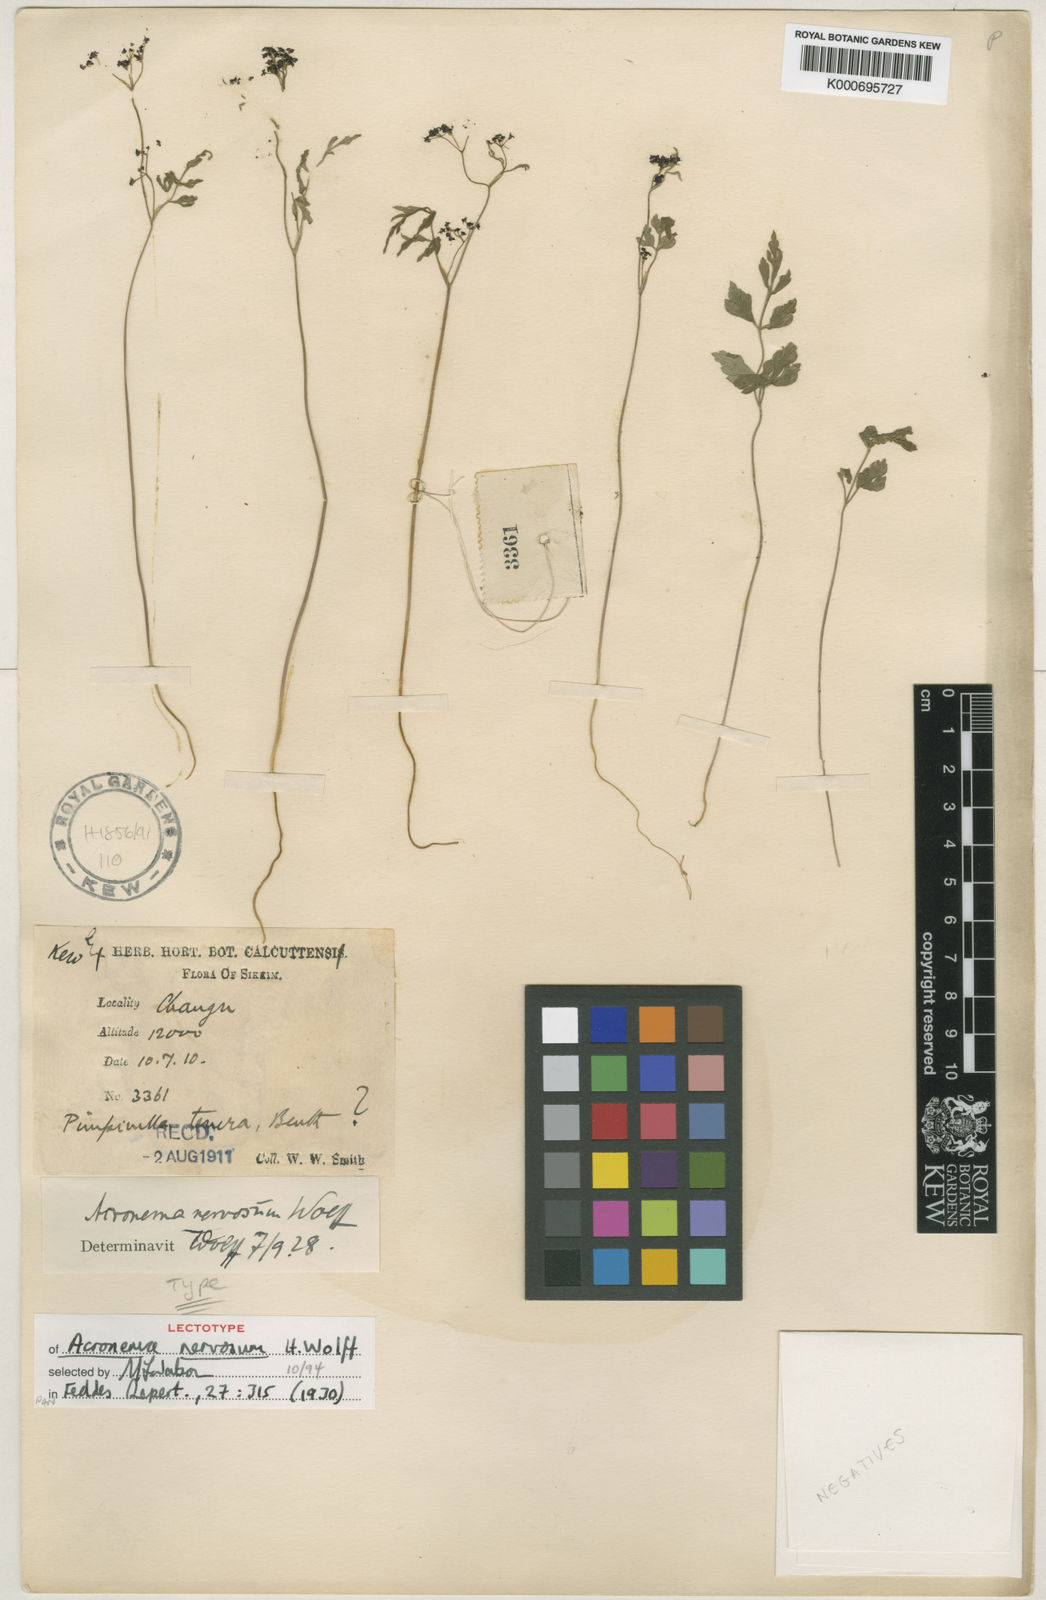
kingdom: Plantae
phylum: Tracheophyta
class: Magnoliopsida
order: Apiales
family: Apiaceae
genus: Acronema
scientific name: Acronema nervosum
